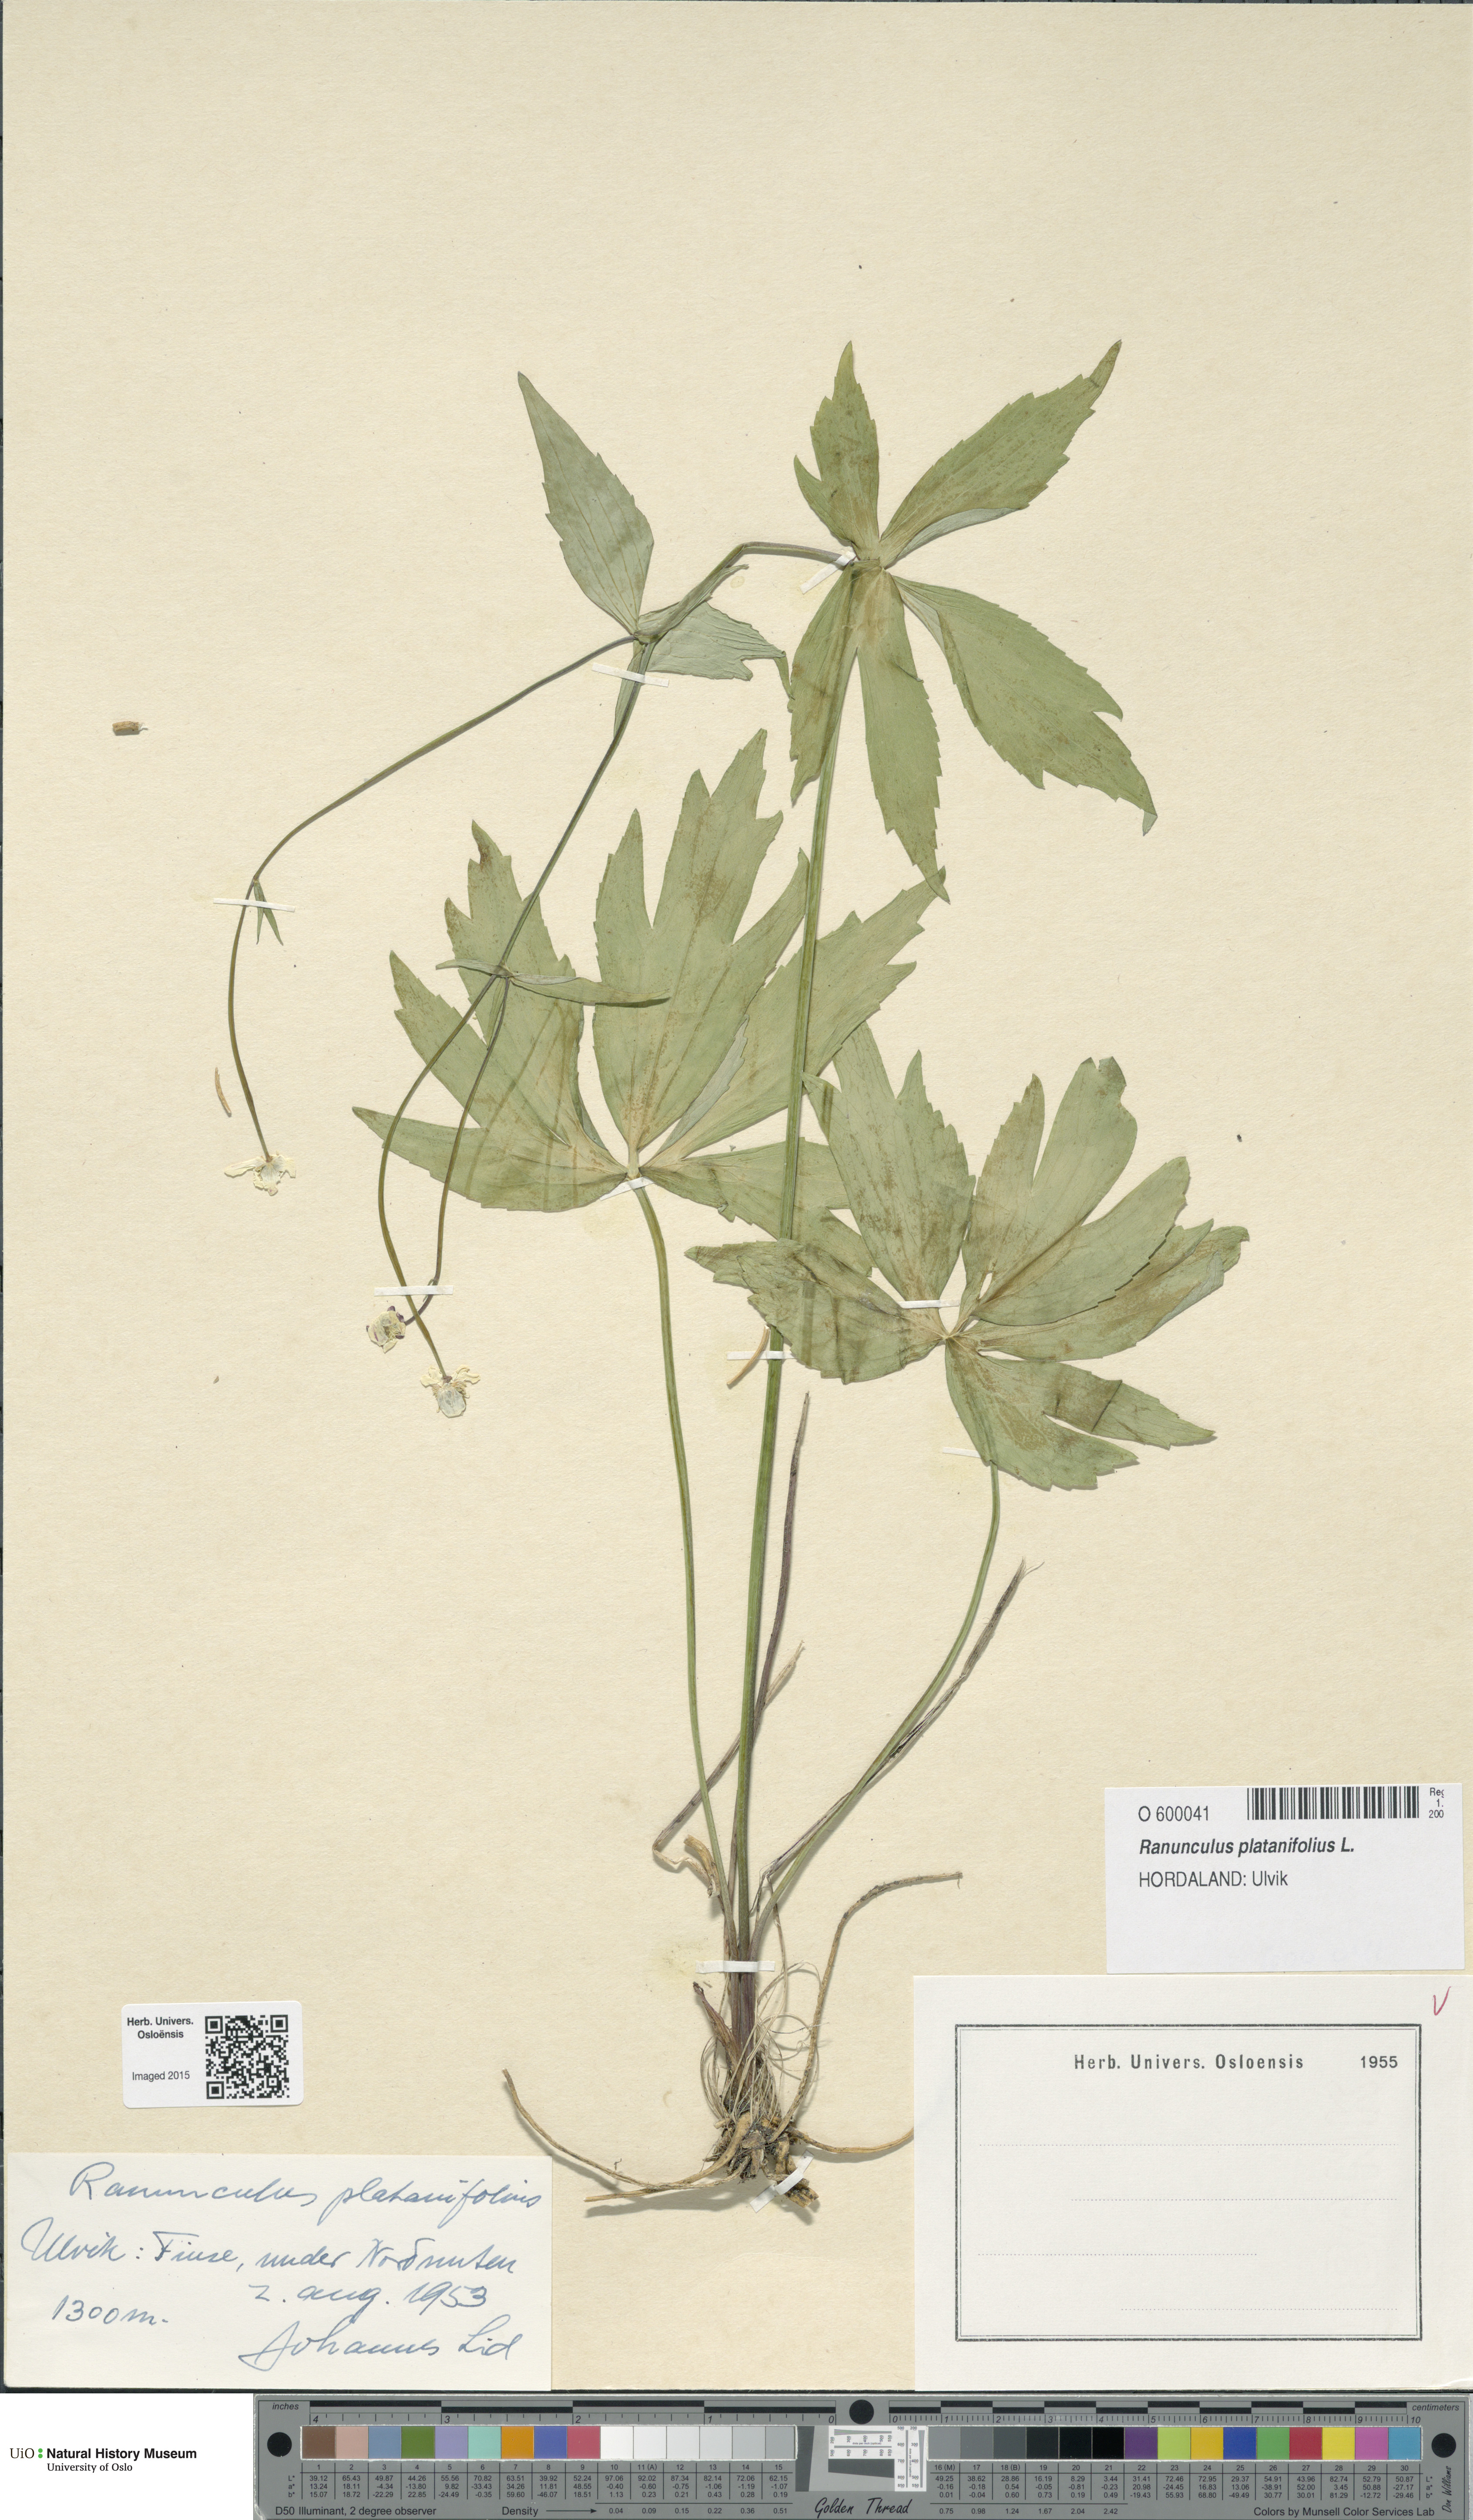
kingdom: Plantae
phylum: Tracheophyta
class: Magnoliopsida
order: Ranunculales
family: Ranunculaceae
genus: Ranunculus
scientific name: Ranunculus platanifolius
